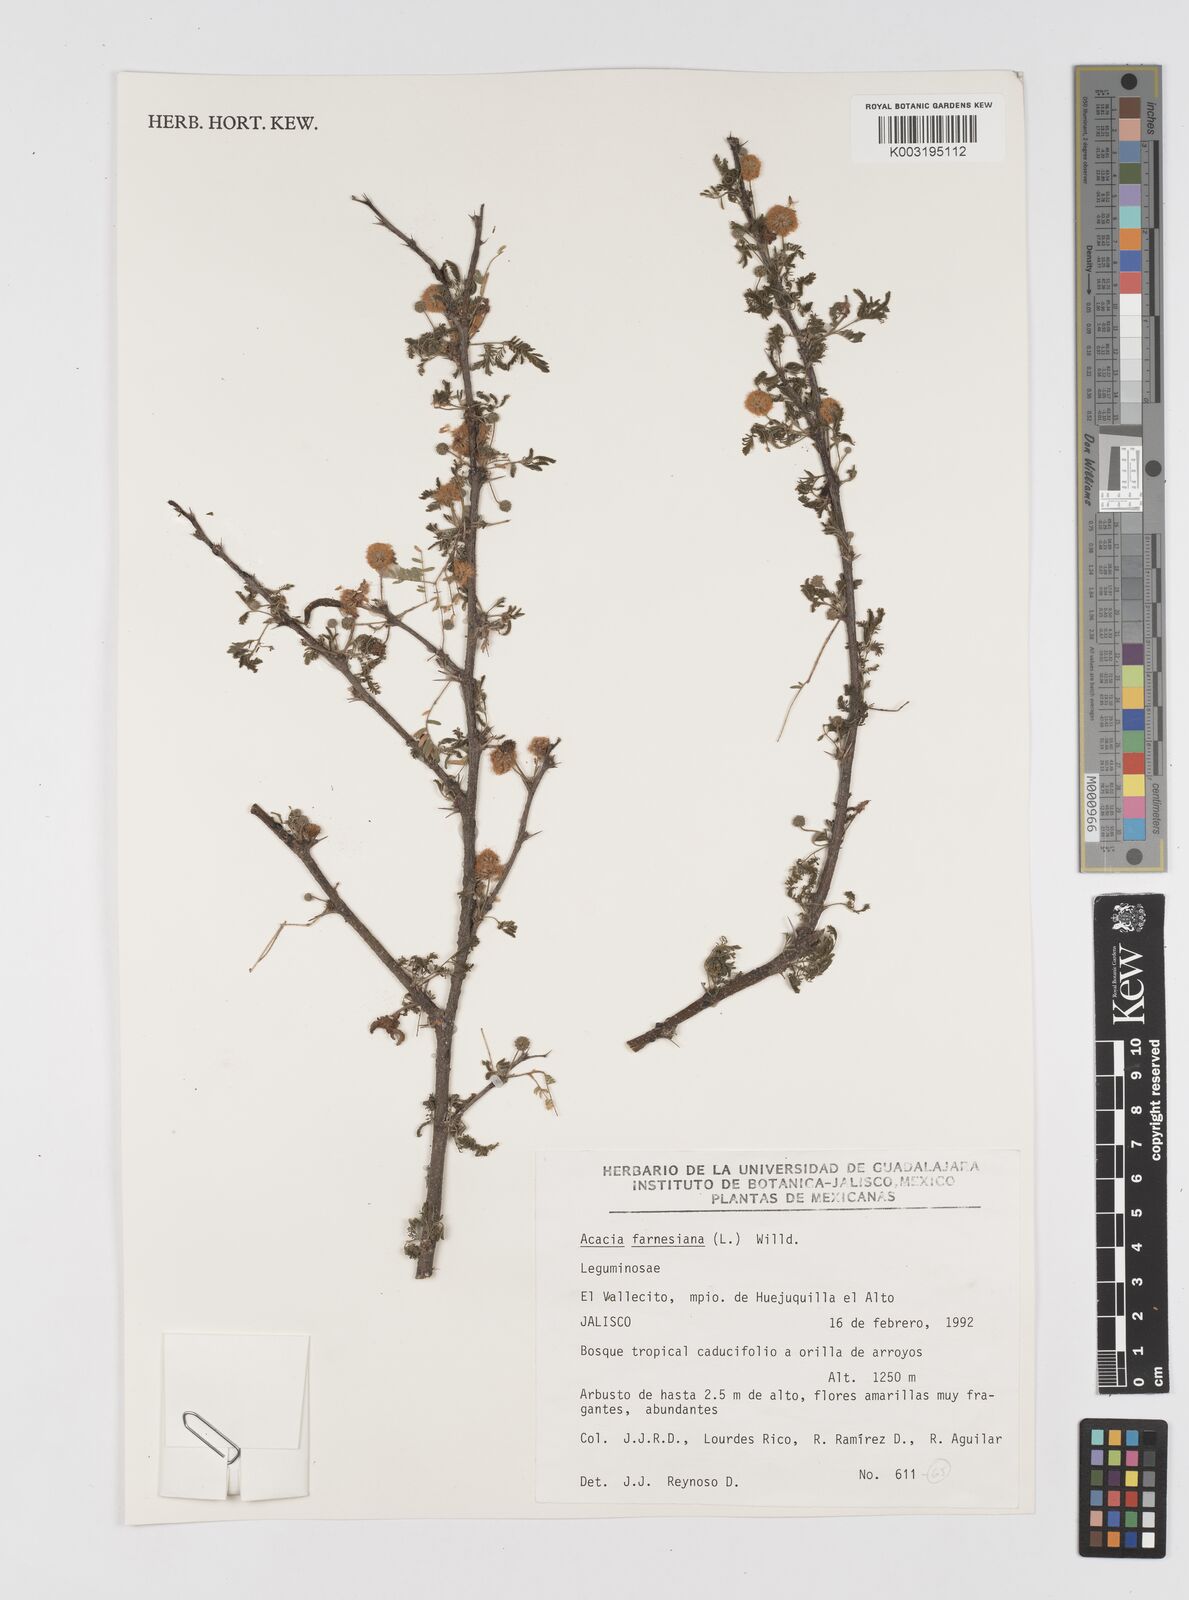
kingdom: Plantae
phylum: Tracheophyta
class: Magnoliopsida
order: Fabales
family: Fabaceae
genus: Vachellia
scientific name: Vachellia farnesiana
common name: Sweet acacia
